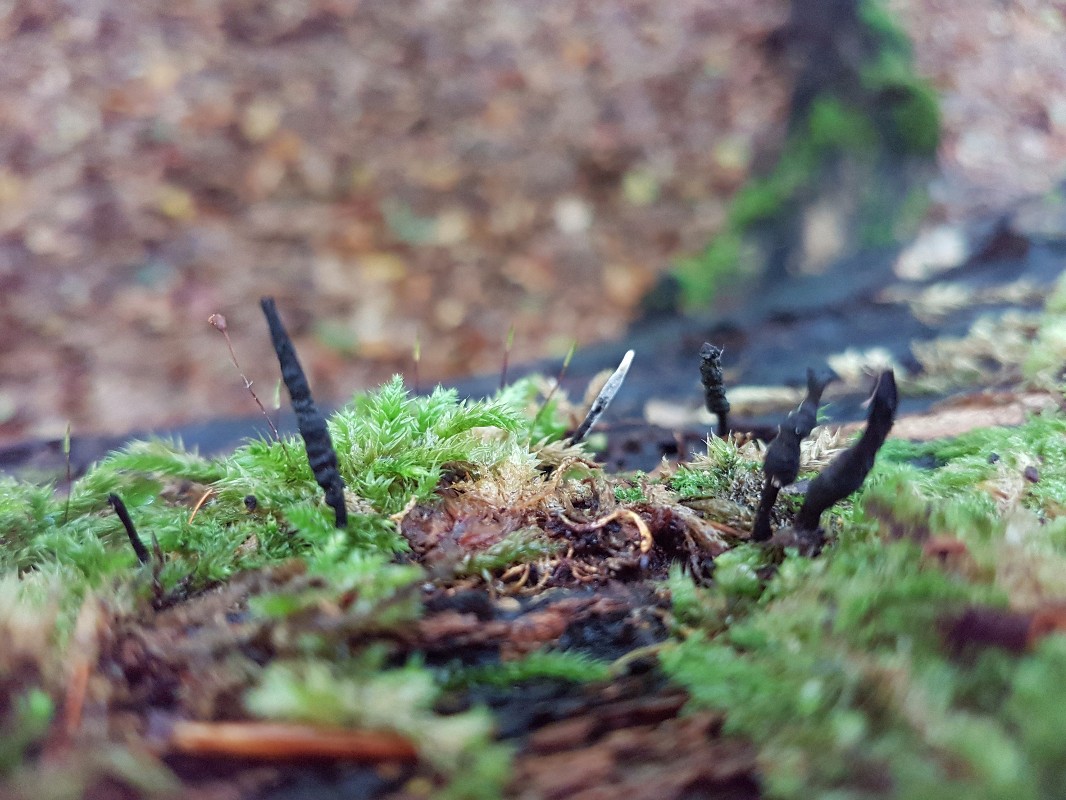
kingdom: Fungi
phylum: Ascomycota
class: Sordariomycetes
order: Xylariales
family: Xylariaceae
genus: Xylaria
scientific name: Xylaria longipes
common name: slank stødsvamp
